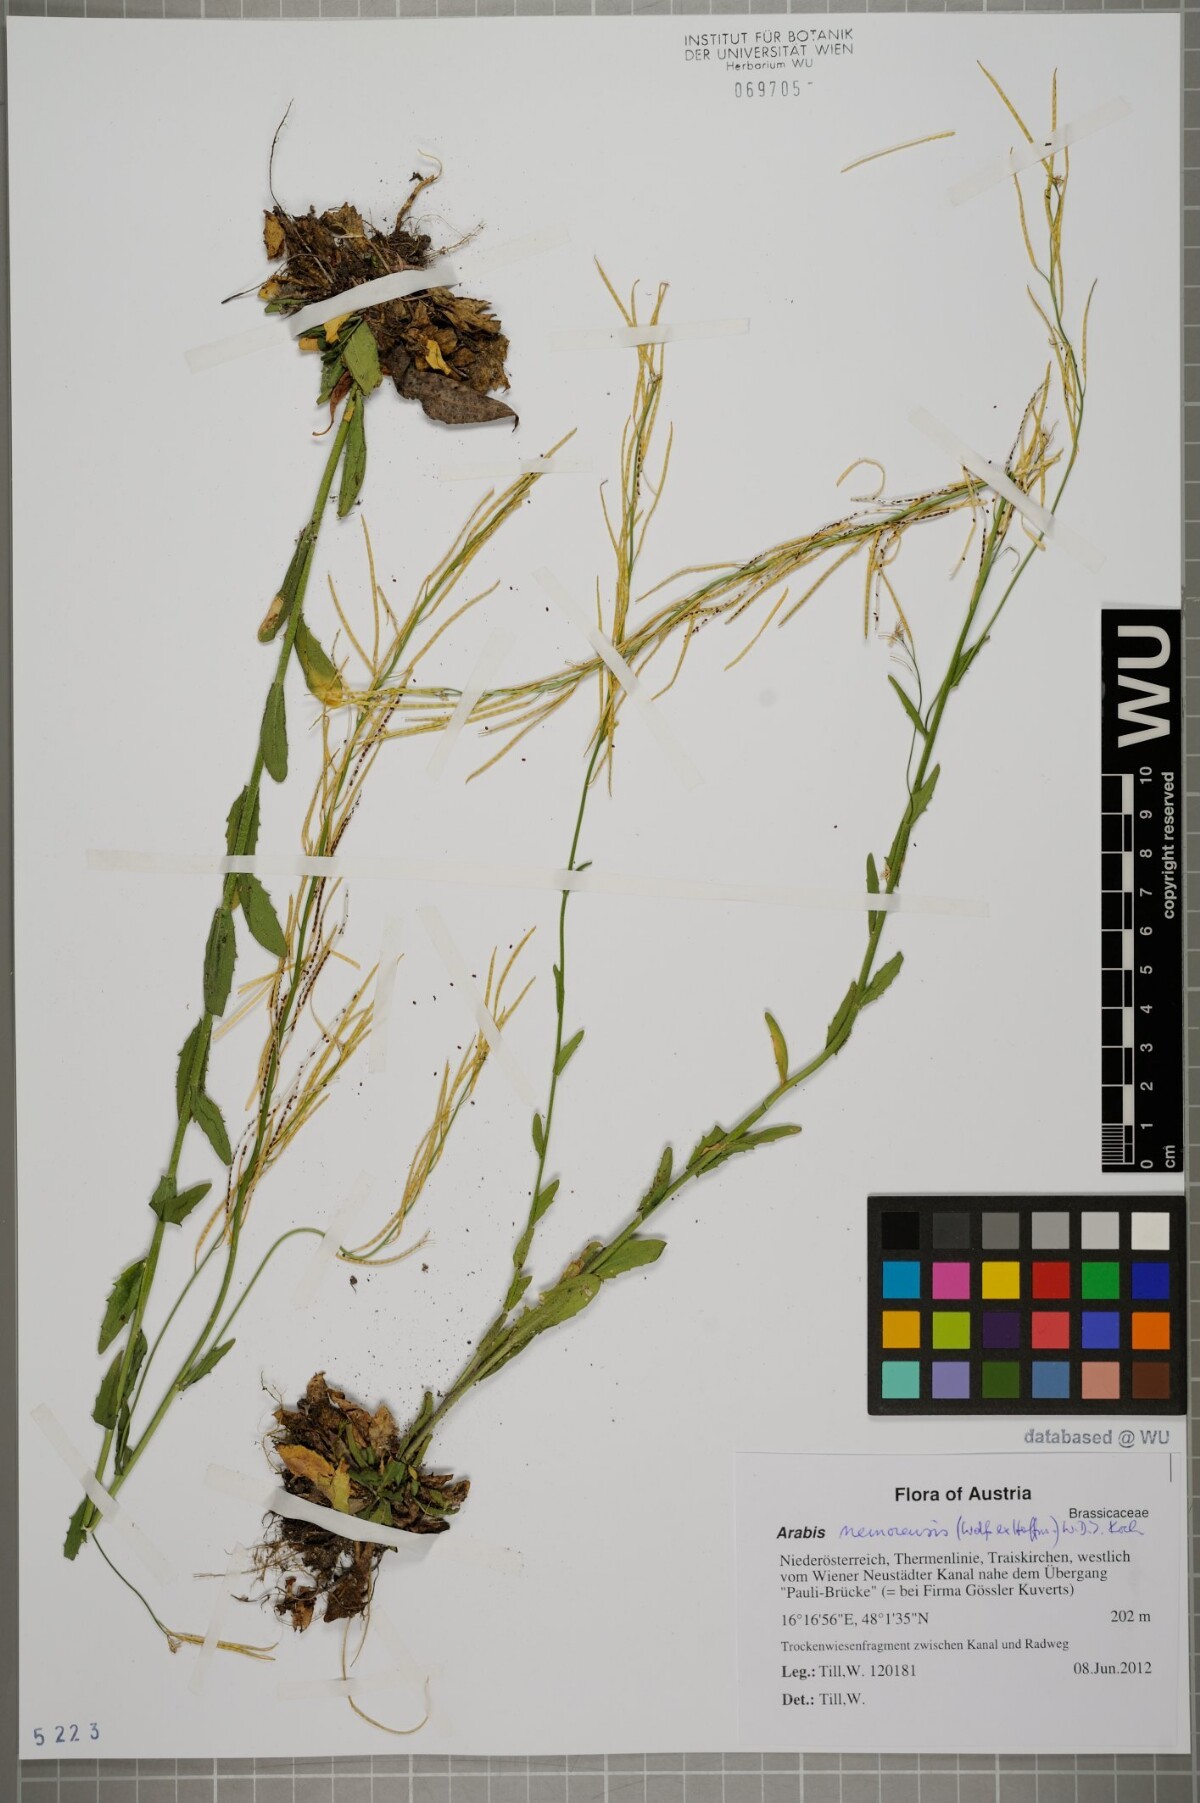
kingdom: Plantae
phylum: Tracheophyta
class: Magnoliopsida
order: Brassicales
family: Brassicaceae
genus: Arabis
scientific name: Arabis sagittata
